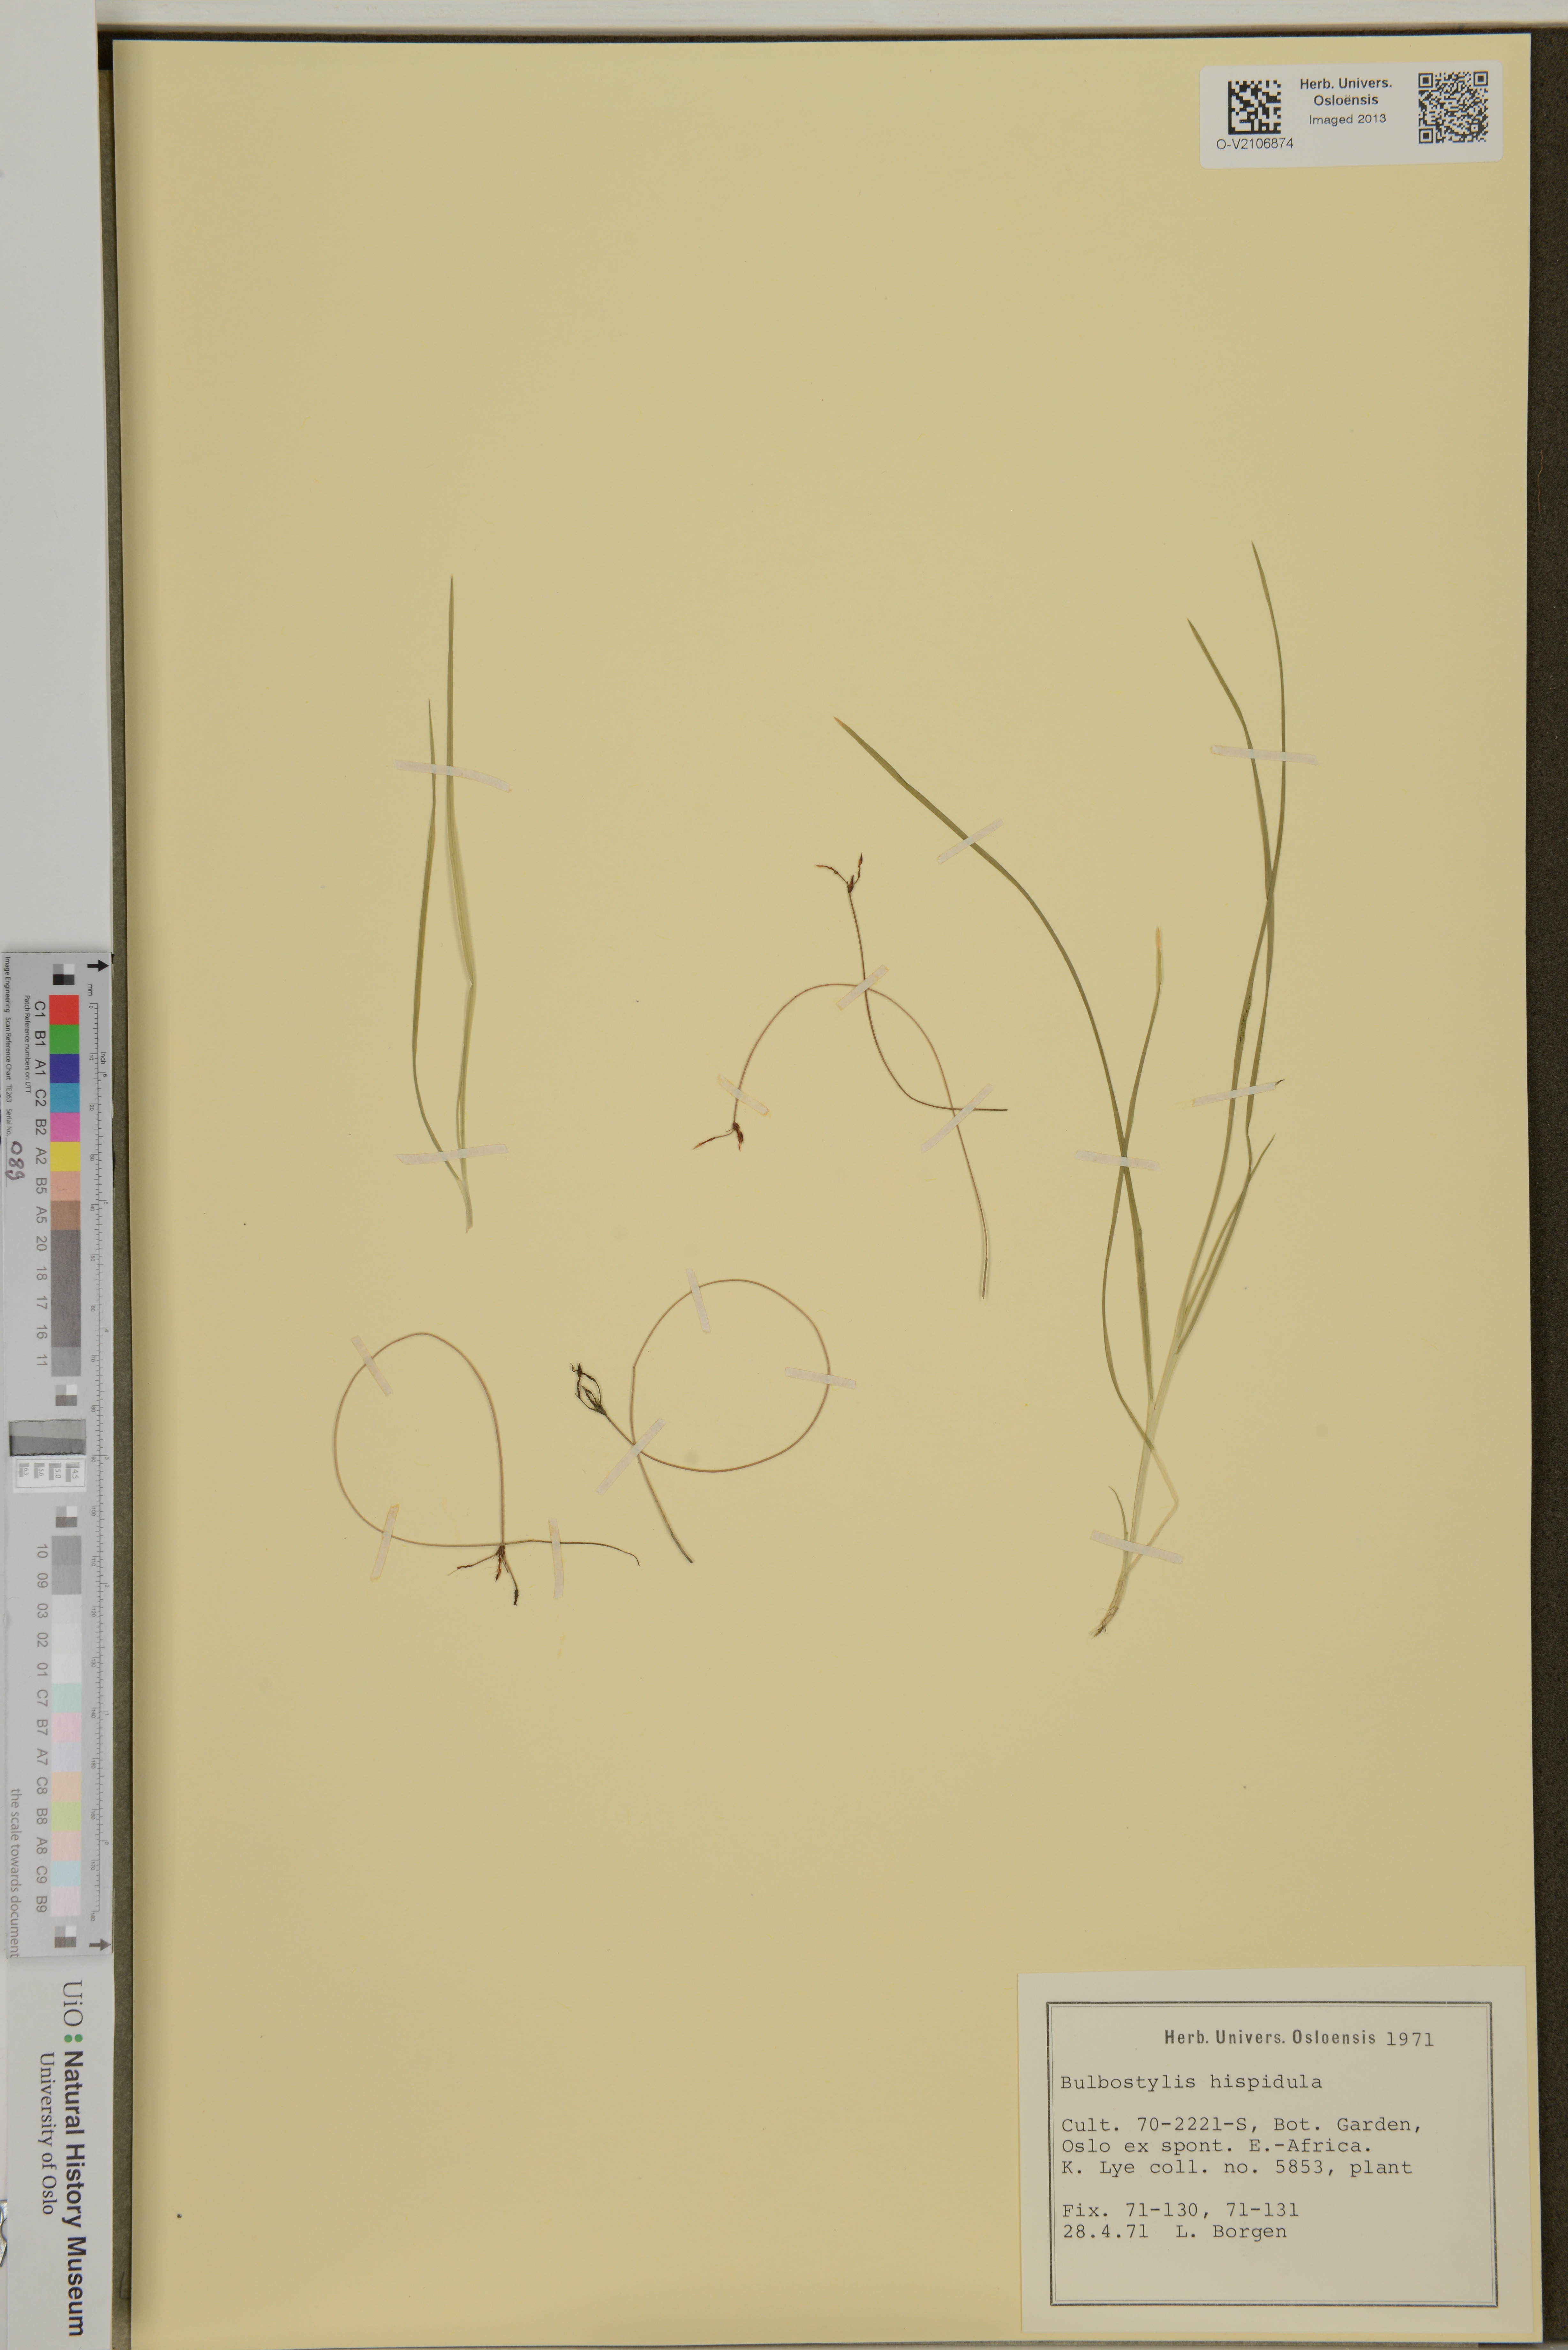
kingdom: Plantae
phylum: Tracheophyta
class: Liliopsida
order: Poales
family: Cyperaceae
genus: Bulbostylis
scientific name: Bulbostylis hispidula
